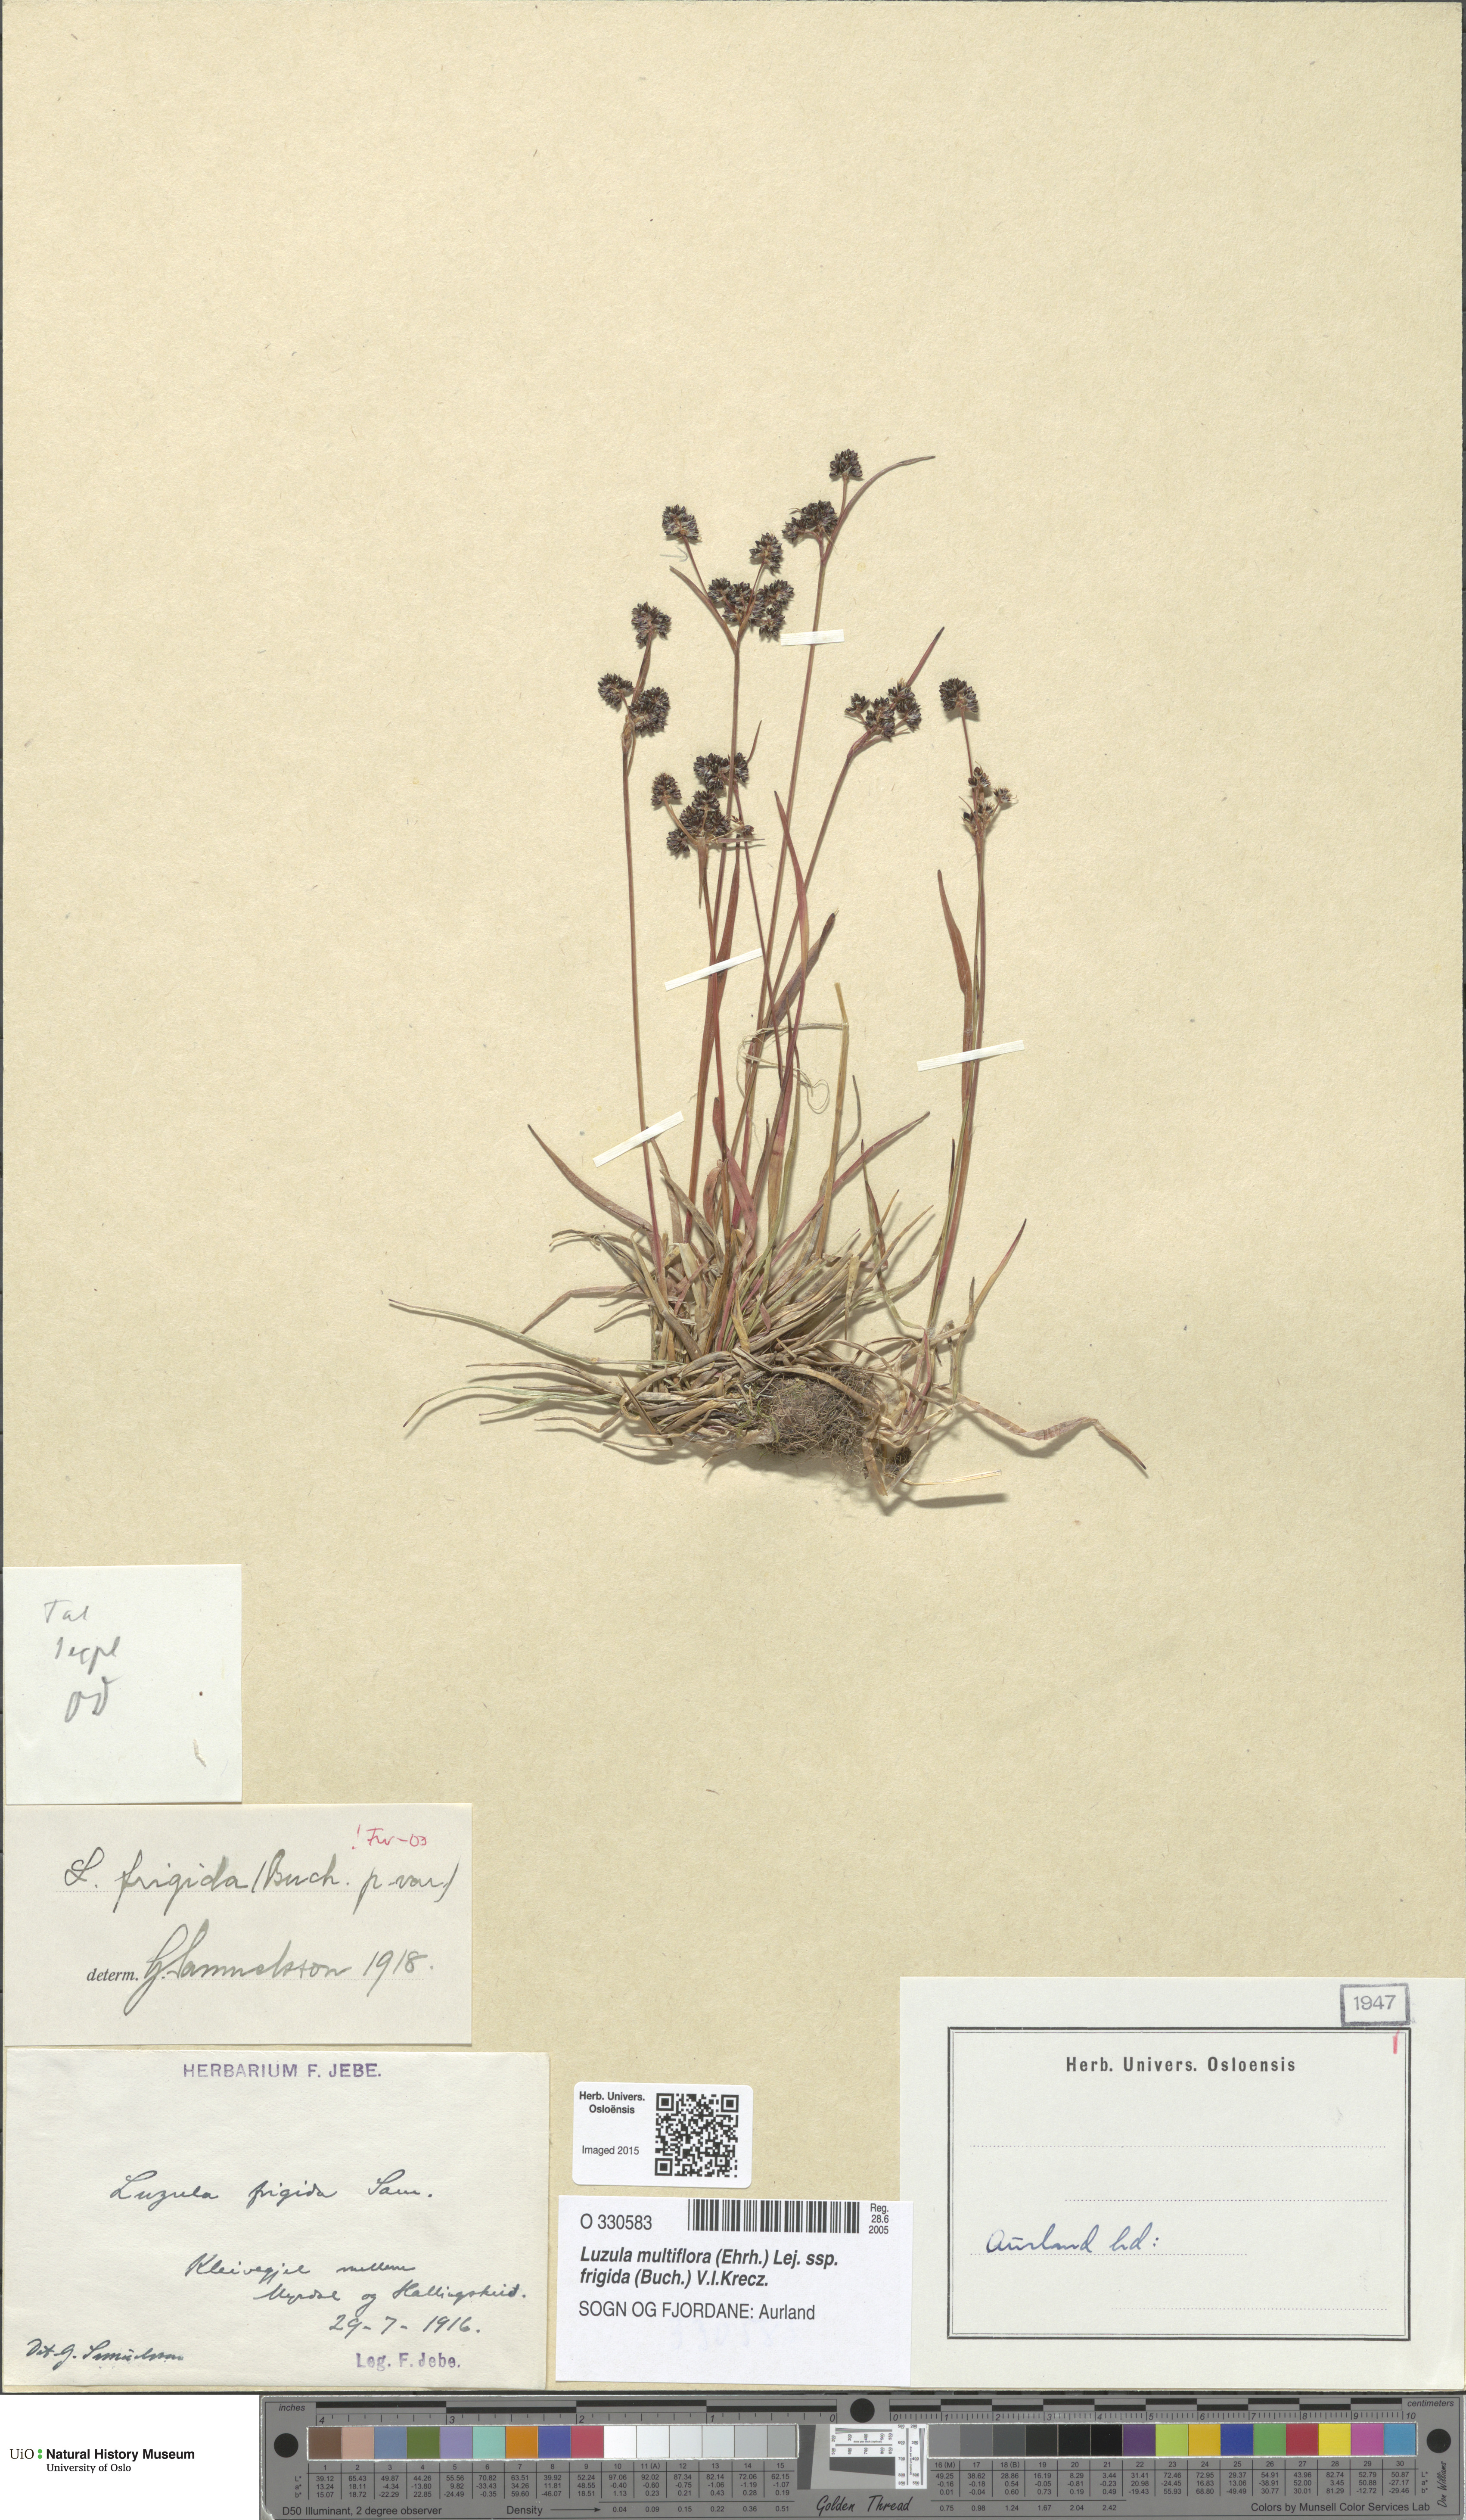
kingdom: Plantae
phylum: Tracheophyta
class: Liliopsida
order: Poales
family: Juncaceae
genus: Luzula
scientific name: Luzula multiflora
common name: Heath wood-rush
